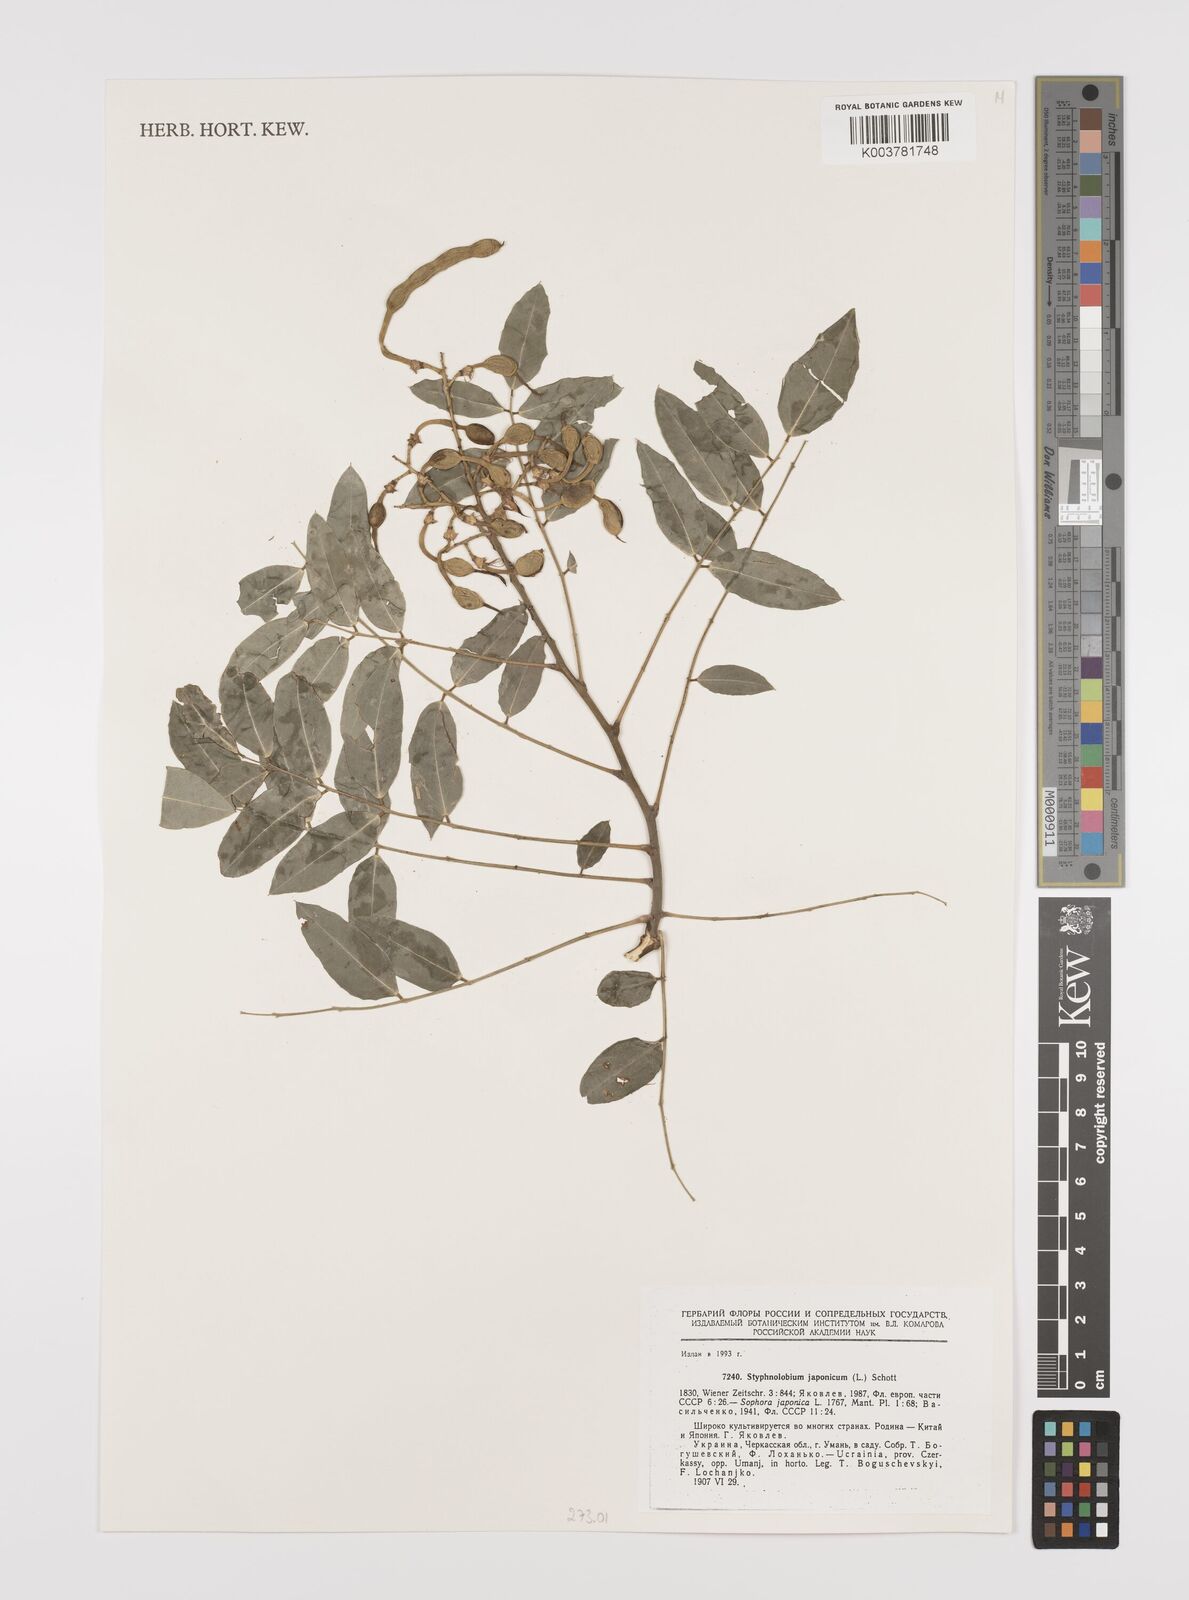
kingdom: Plantae
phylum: Tracheophyta
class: Magnoliopsida
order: Fabales
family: Fabaceae
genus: Styphnolobium
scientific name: Styphnolobium japonicum
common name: Chinese scholartree
